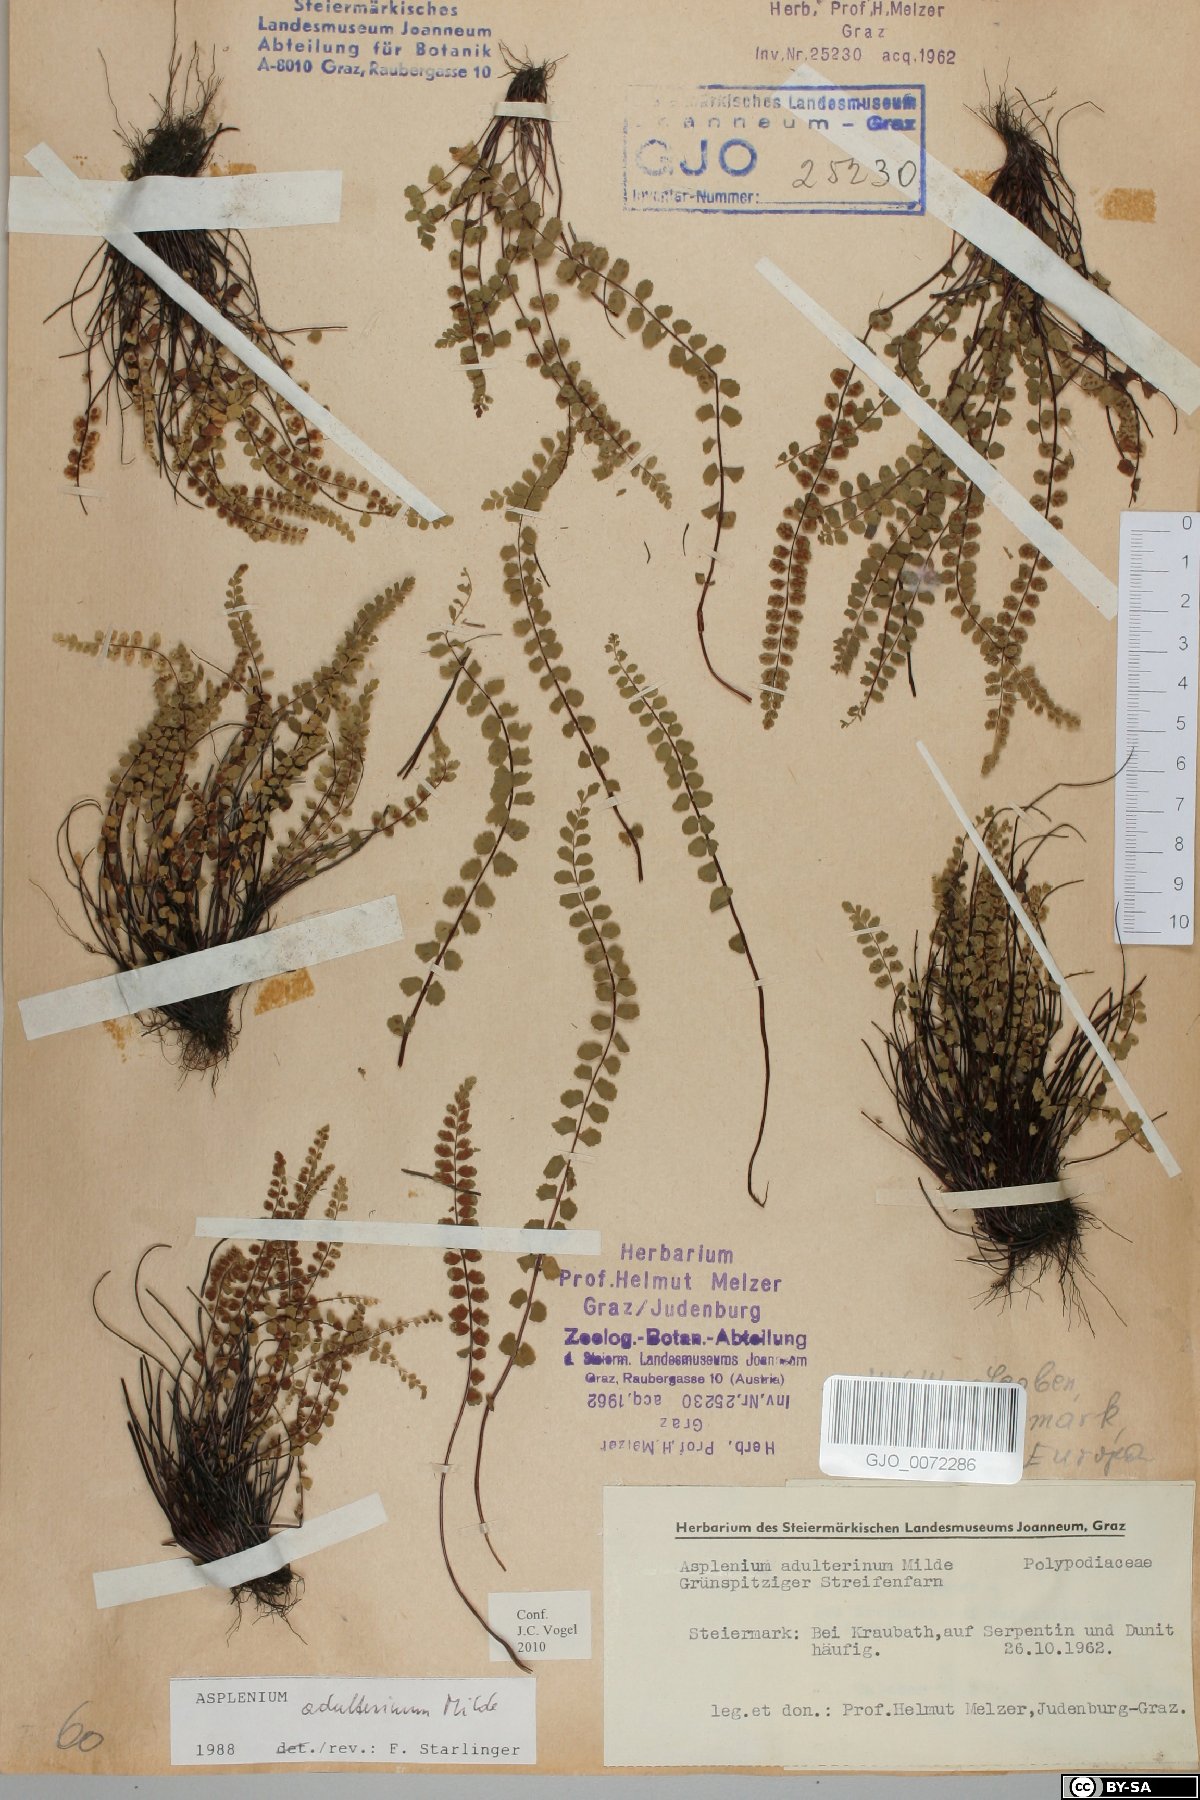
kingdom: Plantae
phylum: Tracheophyta
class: Polypodiopsida
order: Polypodiales
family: Aspleniaceae
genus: Asplenium
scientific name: Asplenium adulterinum
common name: Adulterated spleenwort
